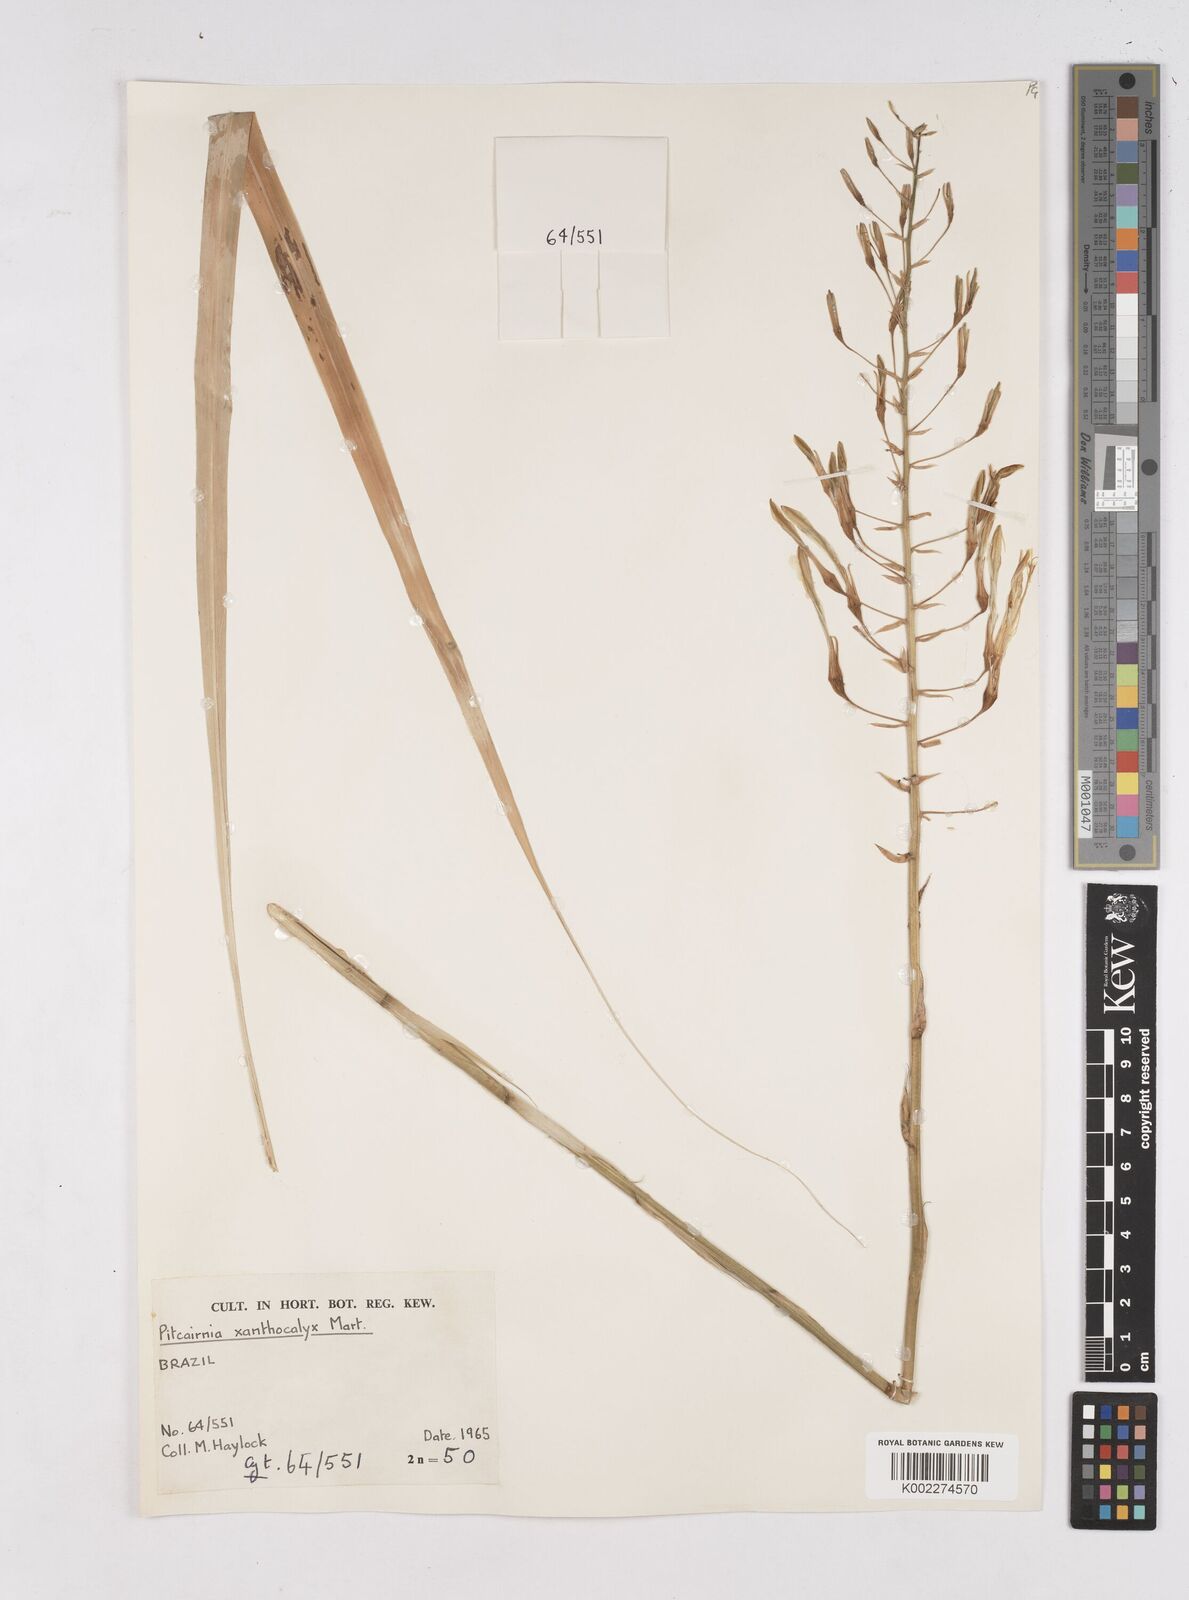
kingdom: Plantae
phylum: Tracheophyta
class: Liliopsida
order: Poales
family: Bromeliaceae
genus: Pitcairnia
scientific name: Pitcairnia xanthocalyx
